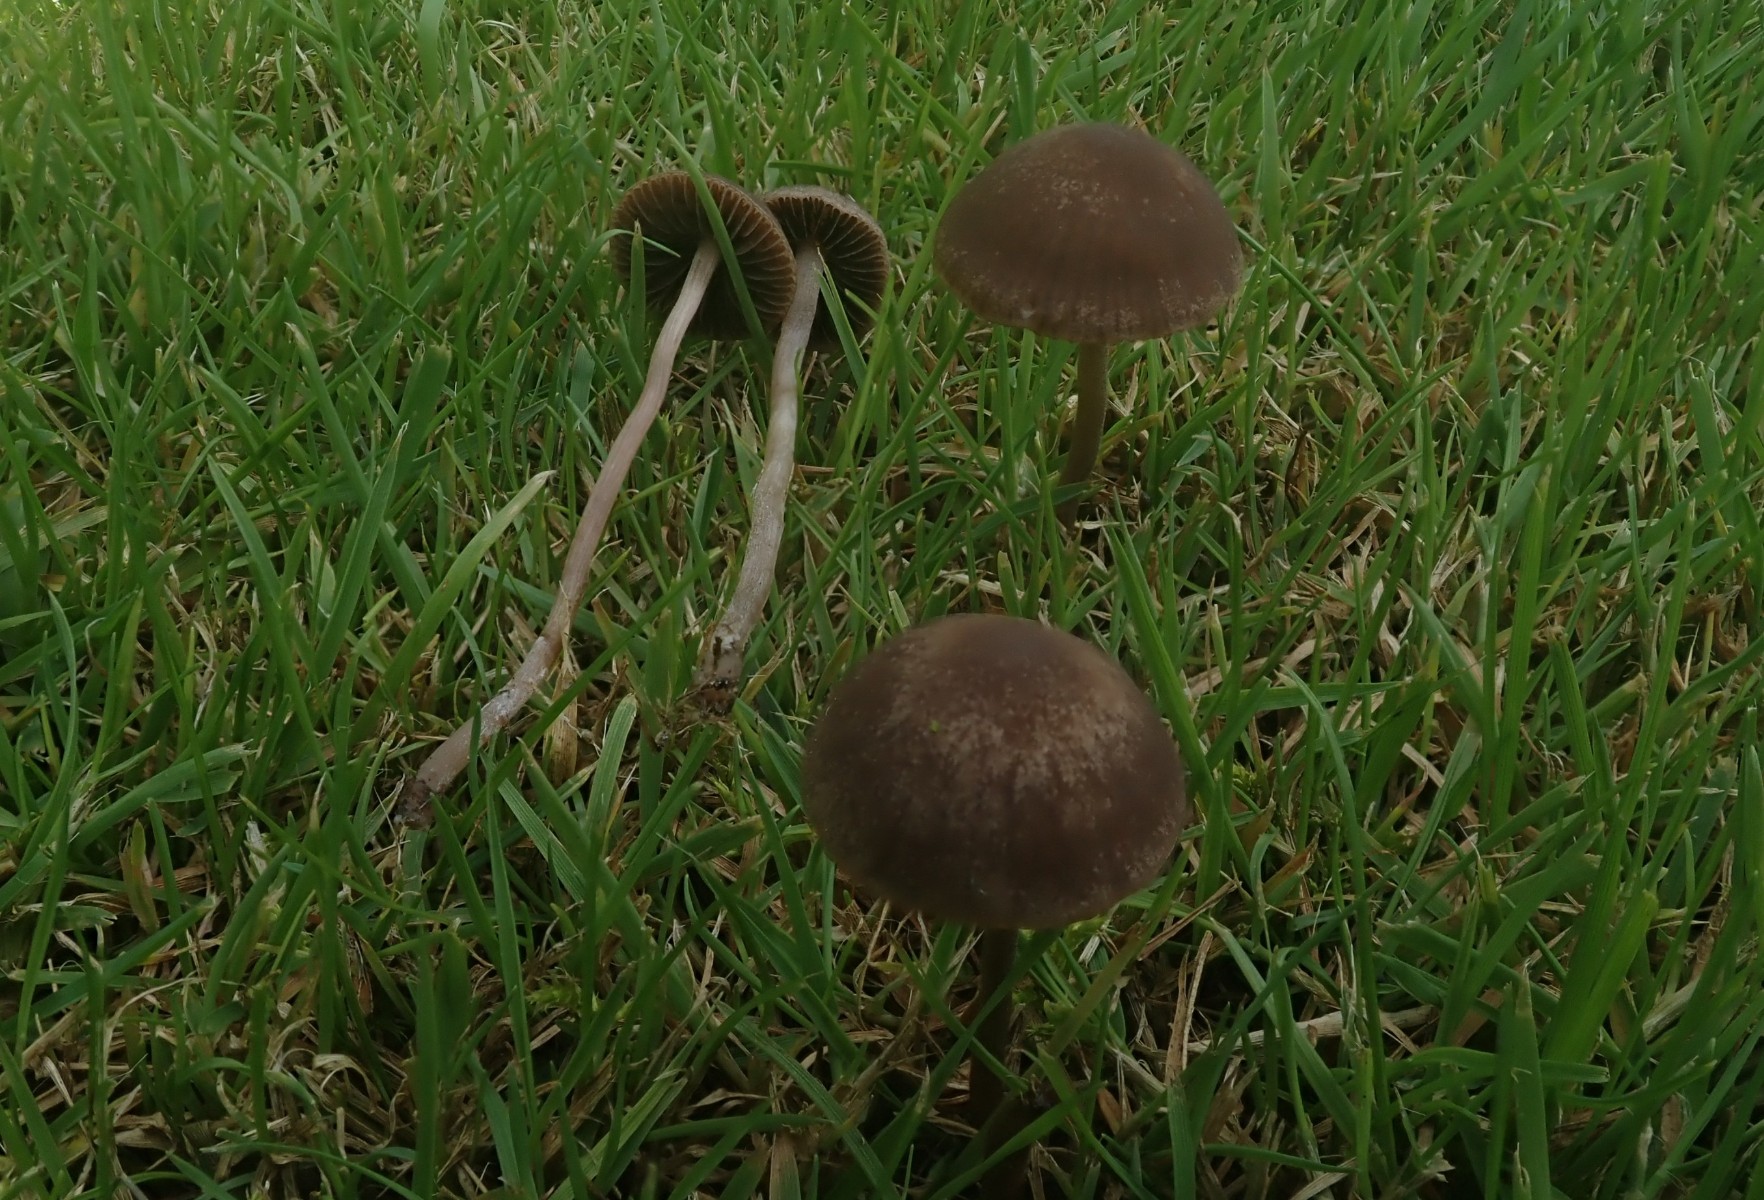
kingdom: Fungi
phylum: Basidiomycota
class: Agaricomycetes
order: Agaricales
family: Bolbitiaceae
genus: Panaeolina
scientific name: Panaeolina foenisecii
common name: høslætsvamp
